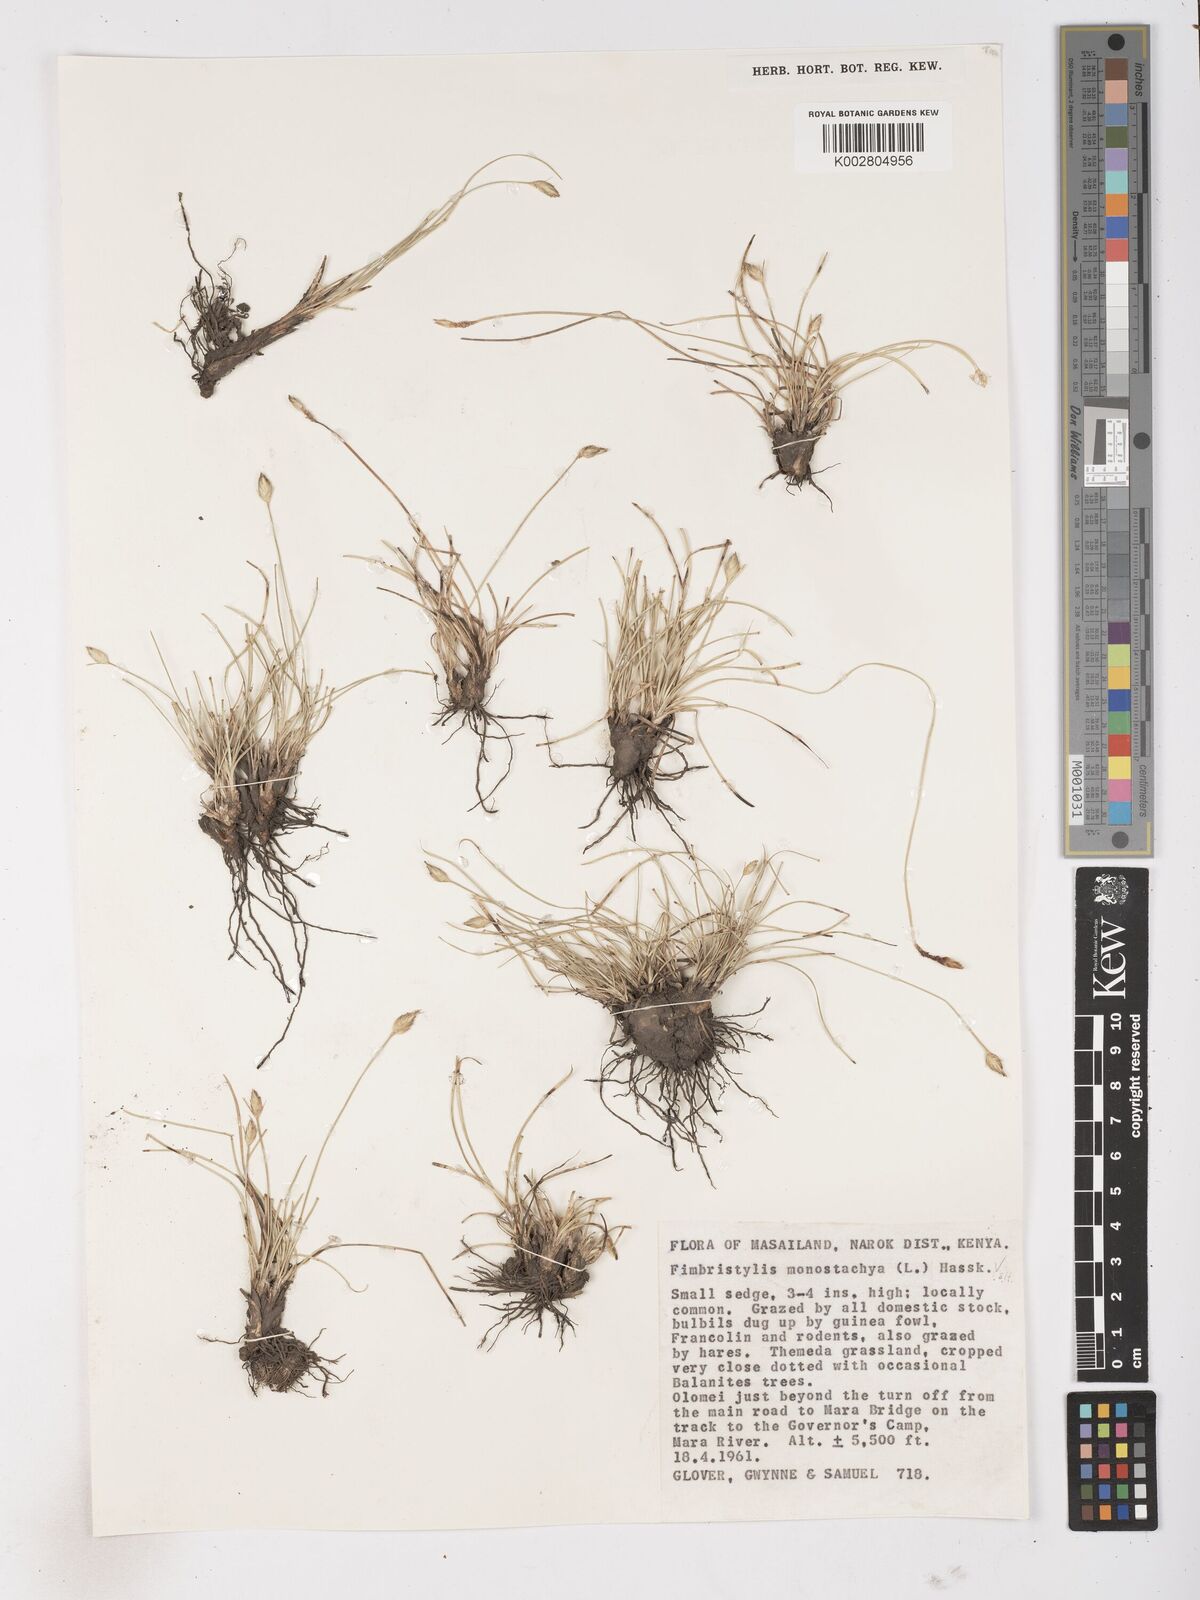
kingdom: Plantae
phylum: Tracheophyta
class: Liliopsida
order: Poales
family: Cyperaceae
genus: Abildgaardia
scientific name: Abildgaardia ovata
